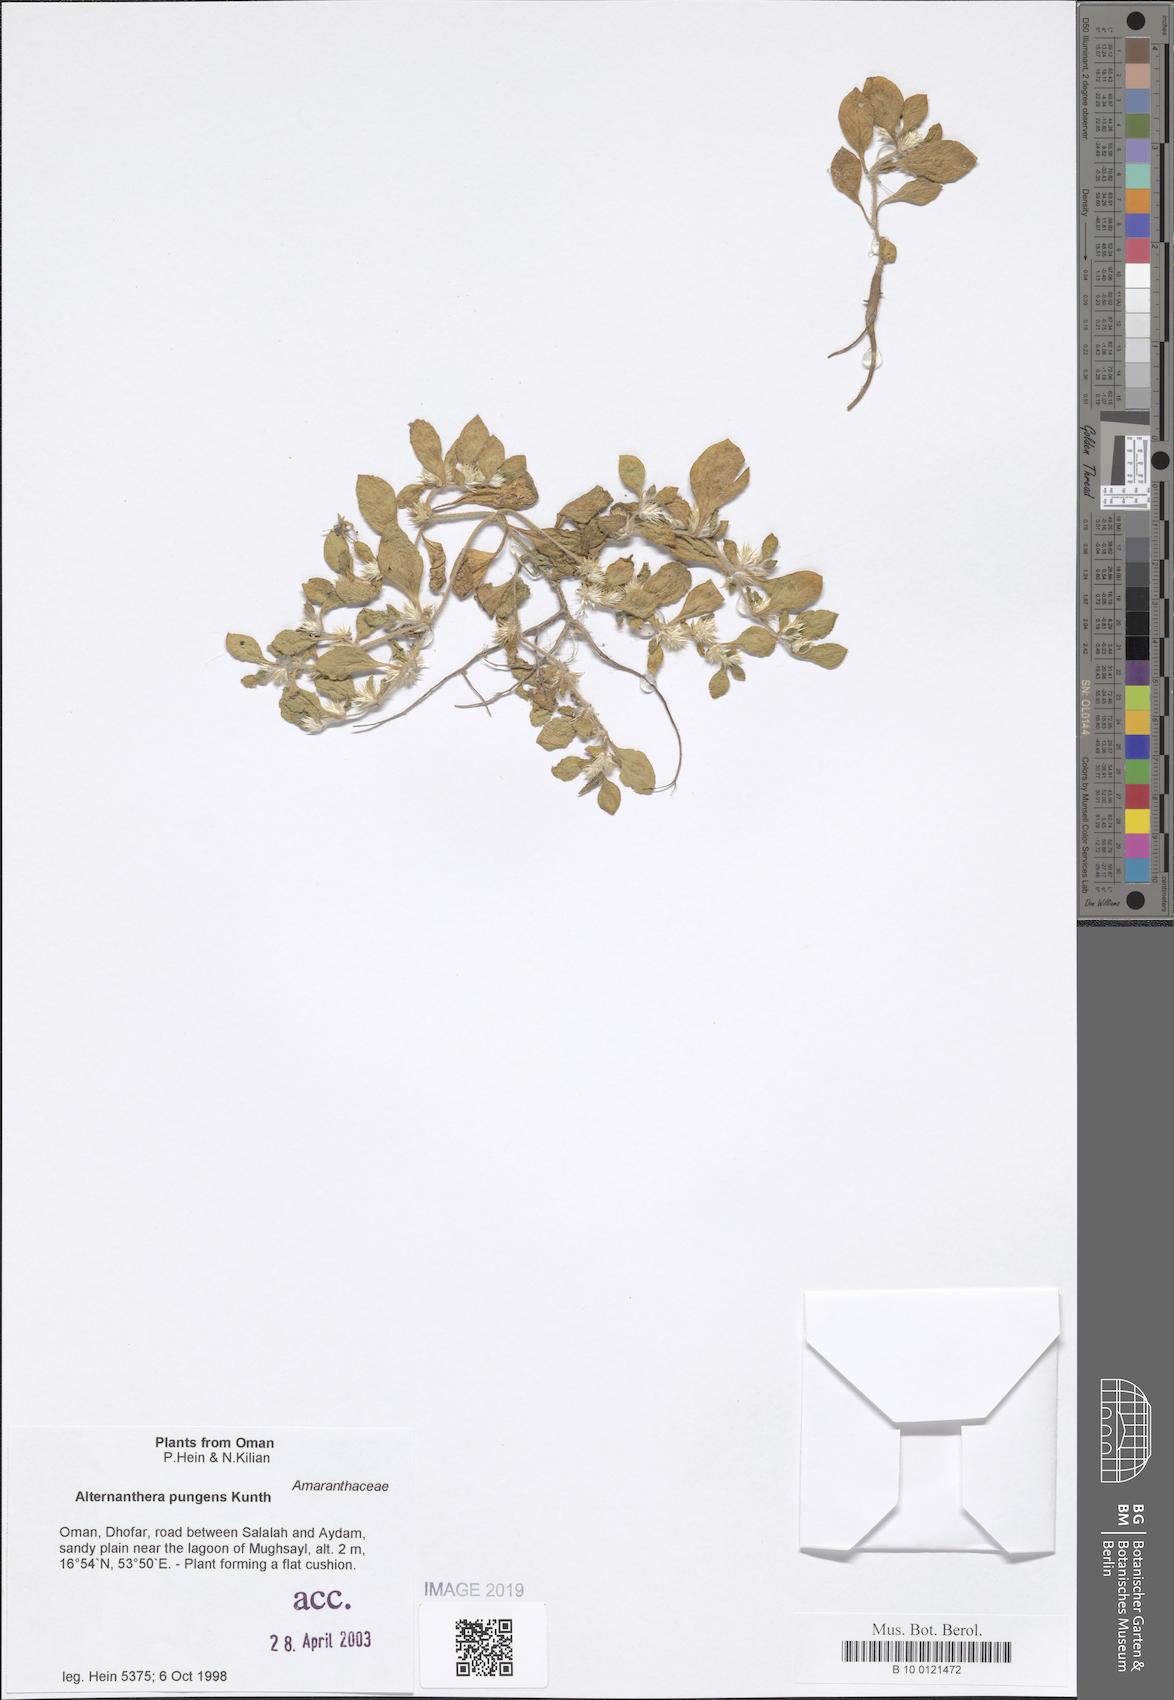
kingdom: Plantae
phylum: Tracheophyta
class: Magnoliopsida
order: Caryophyllales
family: Amaranthaceae
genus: Alternanthera
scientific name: Alternanthera pungens
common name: Khakiweed
